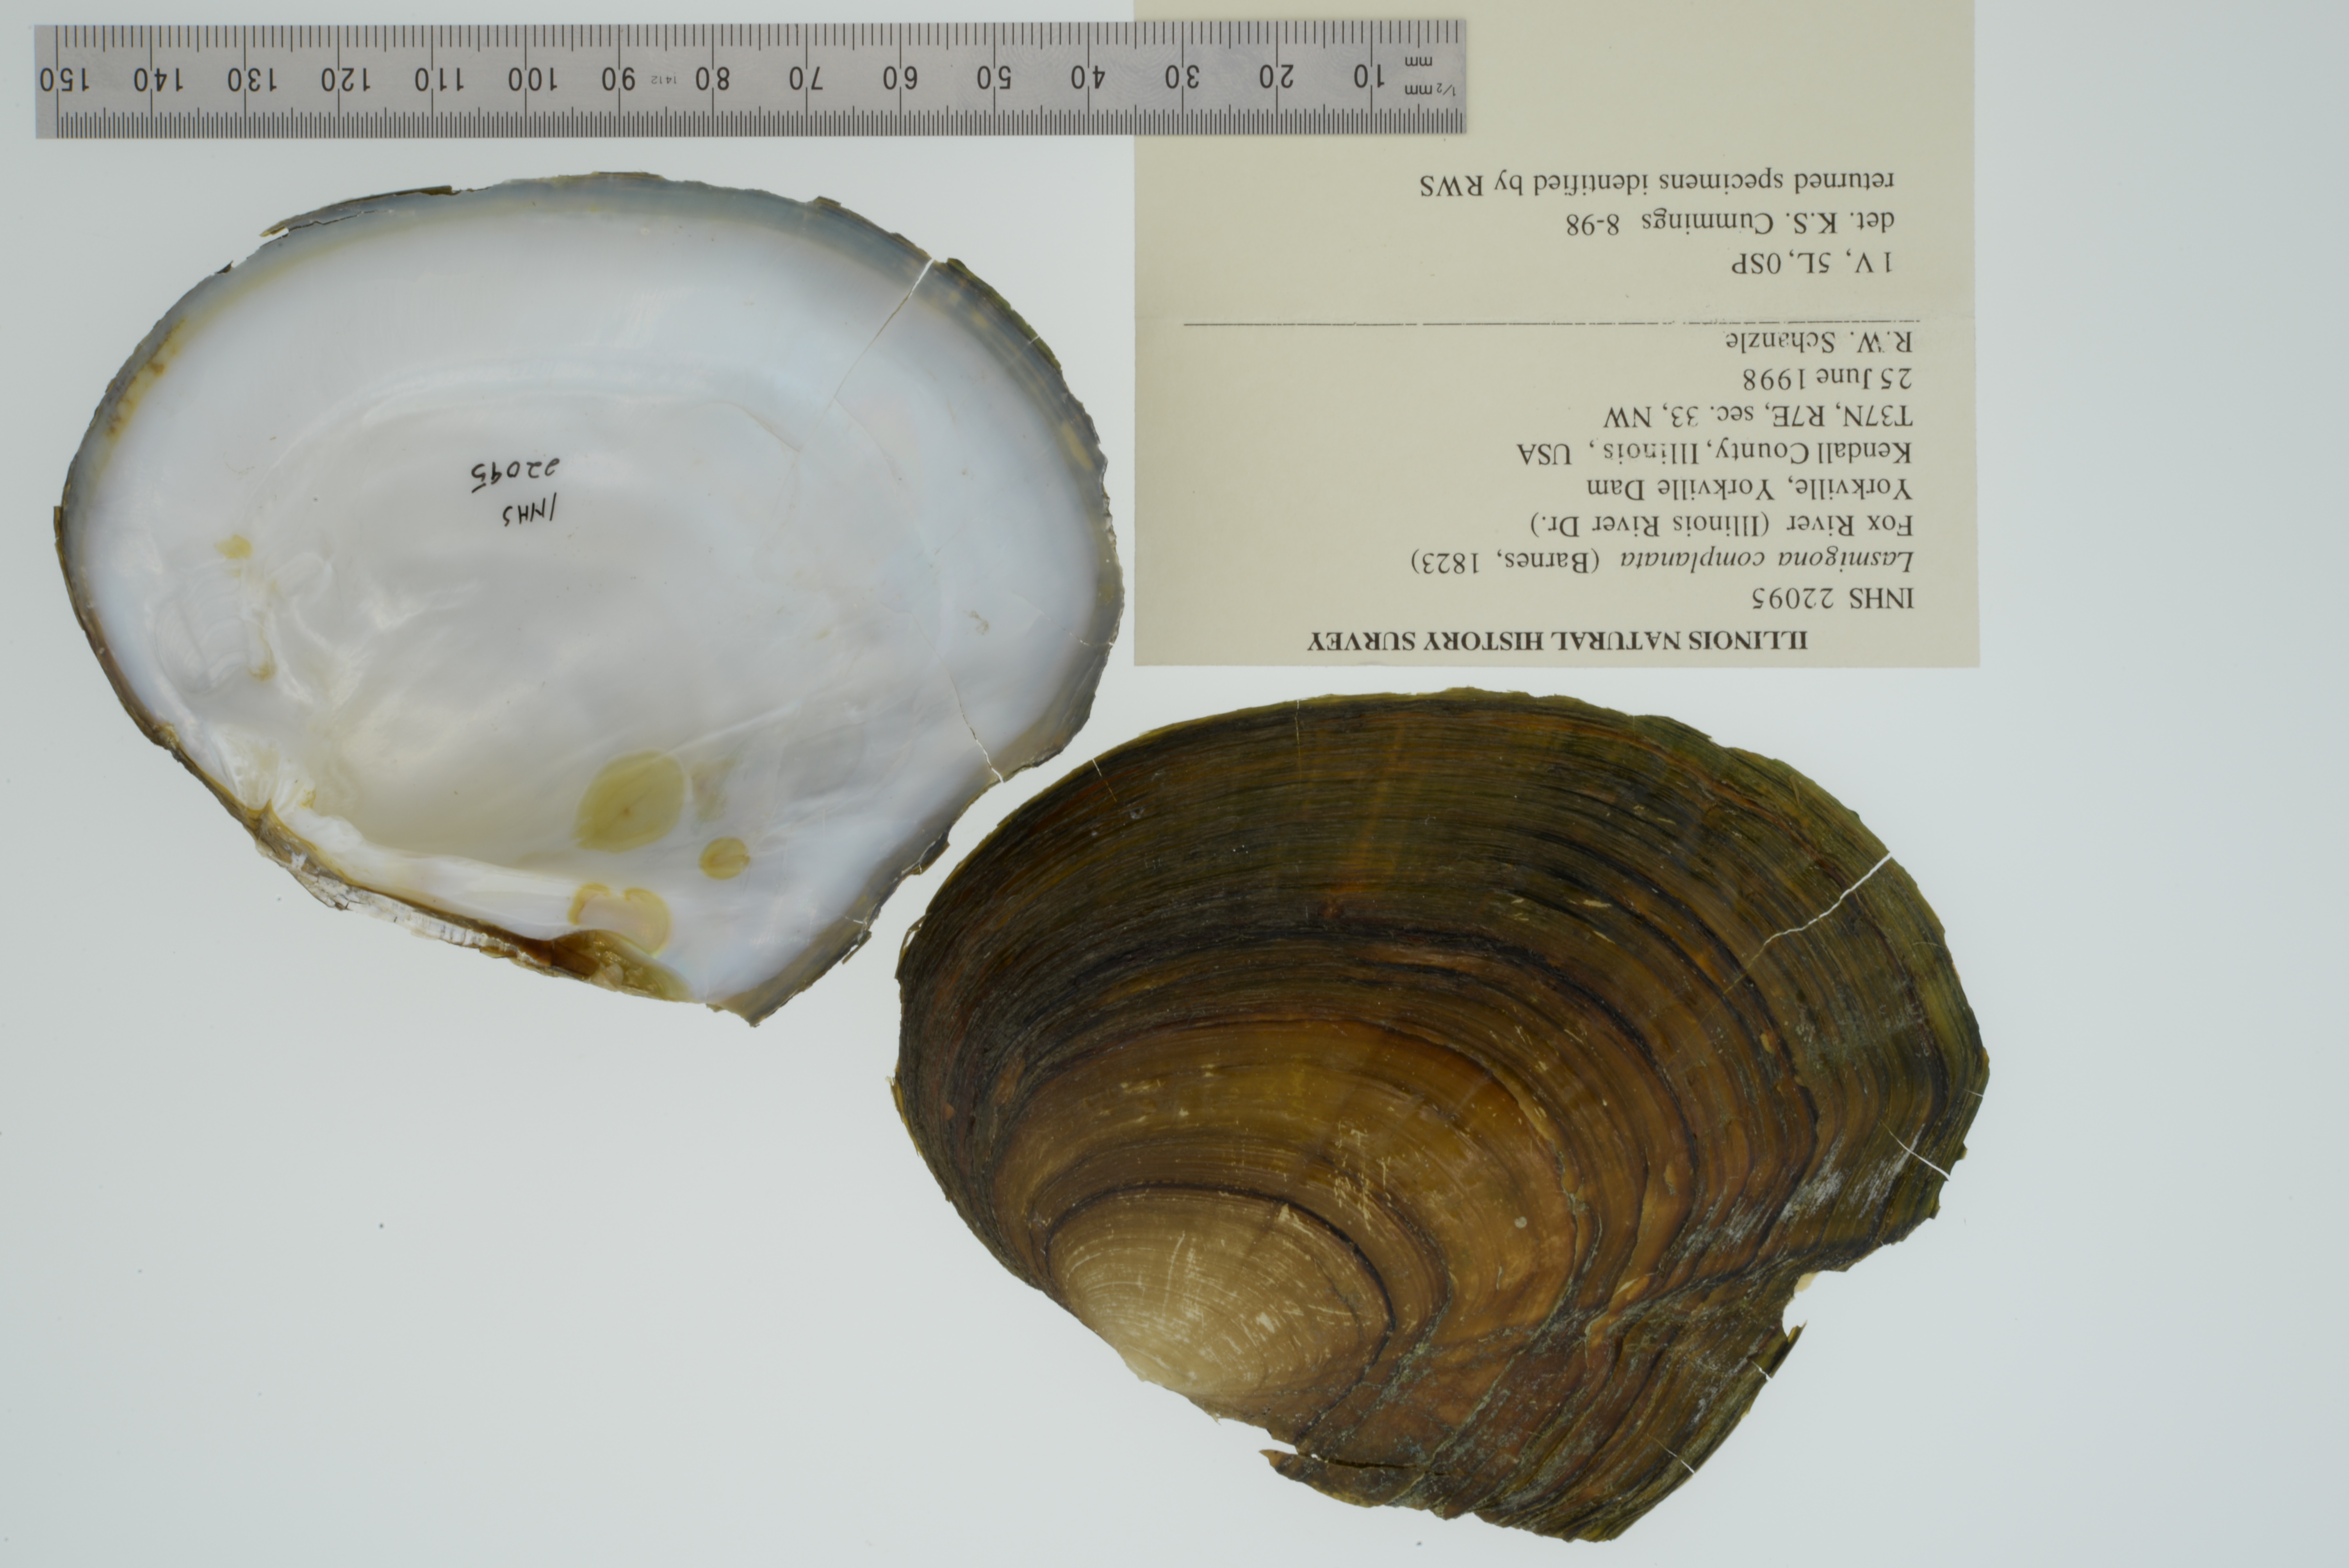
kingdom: Animalia
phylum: Mollusca
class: Bivalvia
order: Unionida
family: Unionidae
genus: Lasmigona
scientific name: Lasmigona complanata
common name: White heelsplitter
